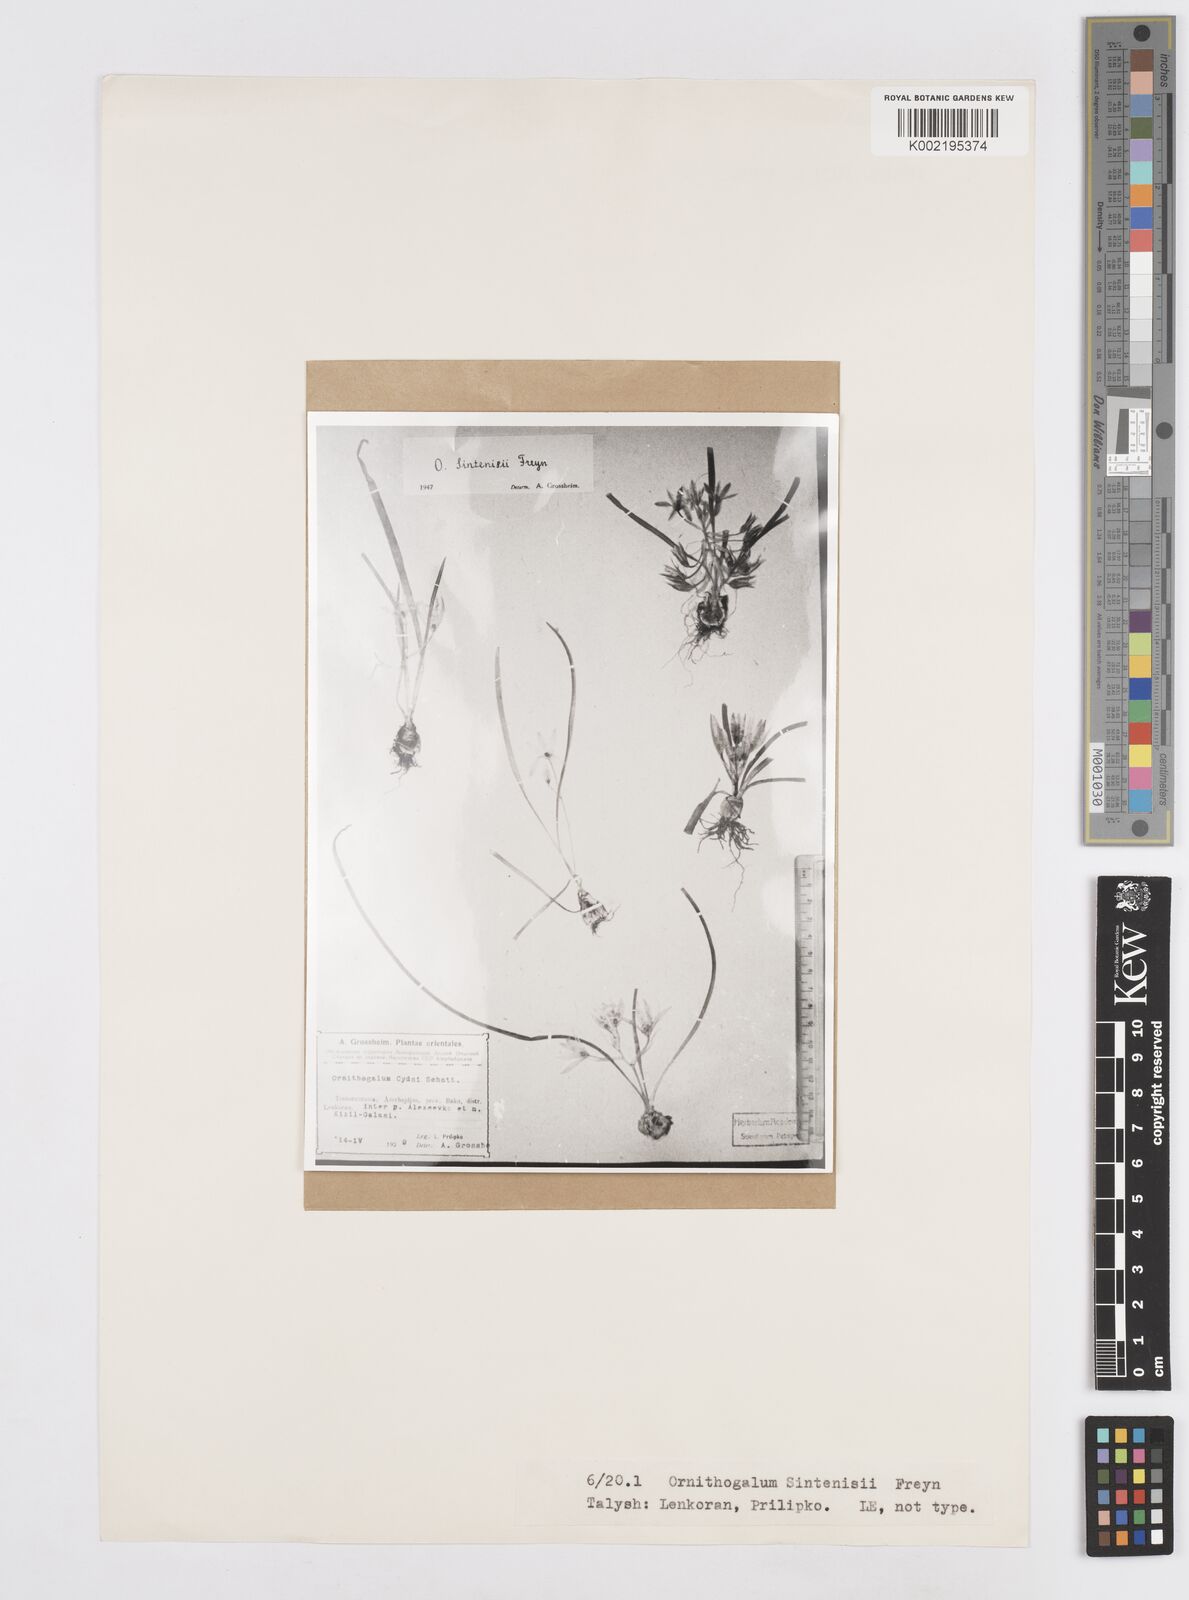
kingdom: Plantae
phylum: Tracheophyta
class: Liliopsida
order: Asparagales
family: Asparagaceae
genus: Ornithogalum
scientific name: Ornithogalum sintenisii
